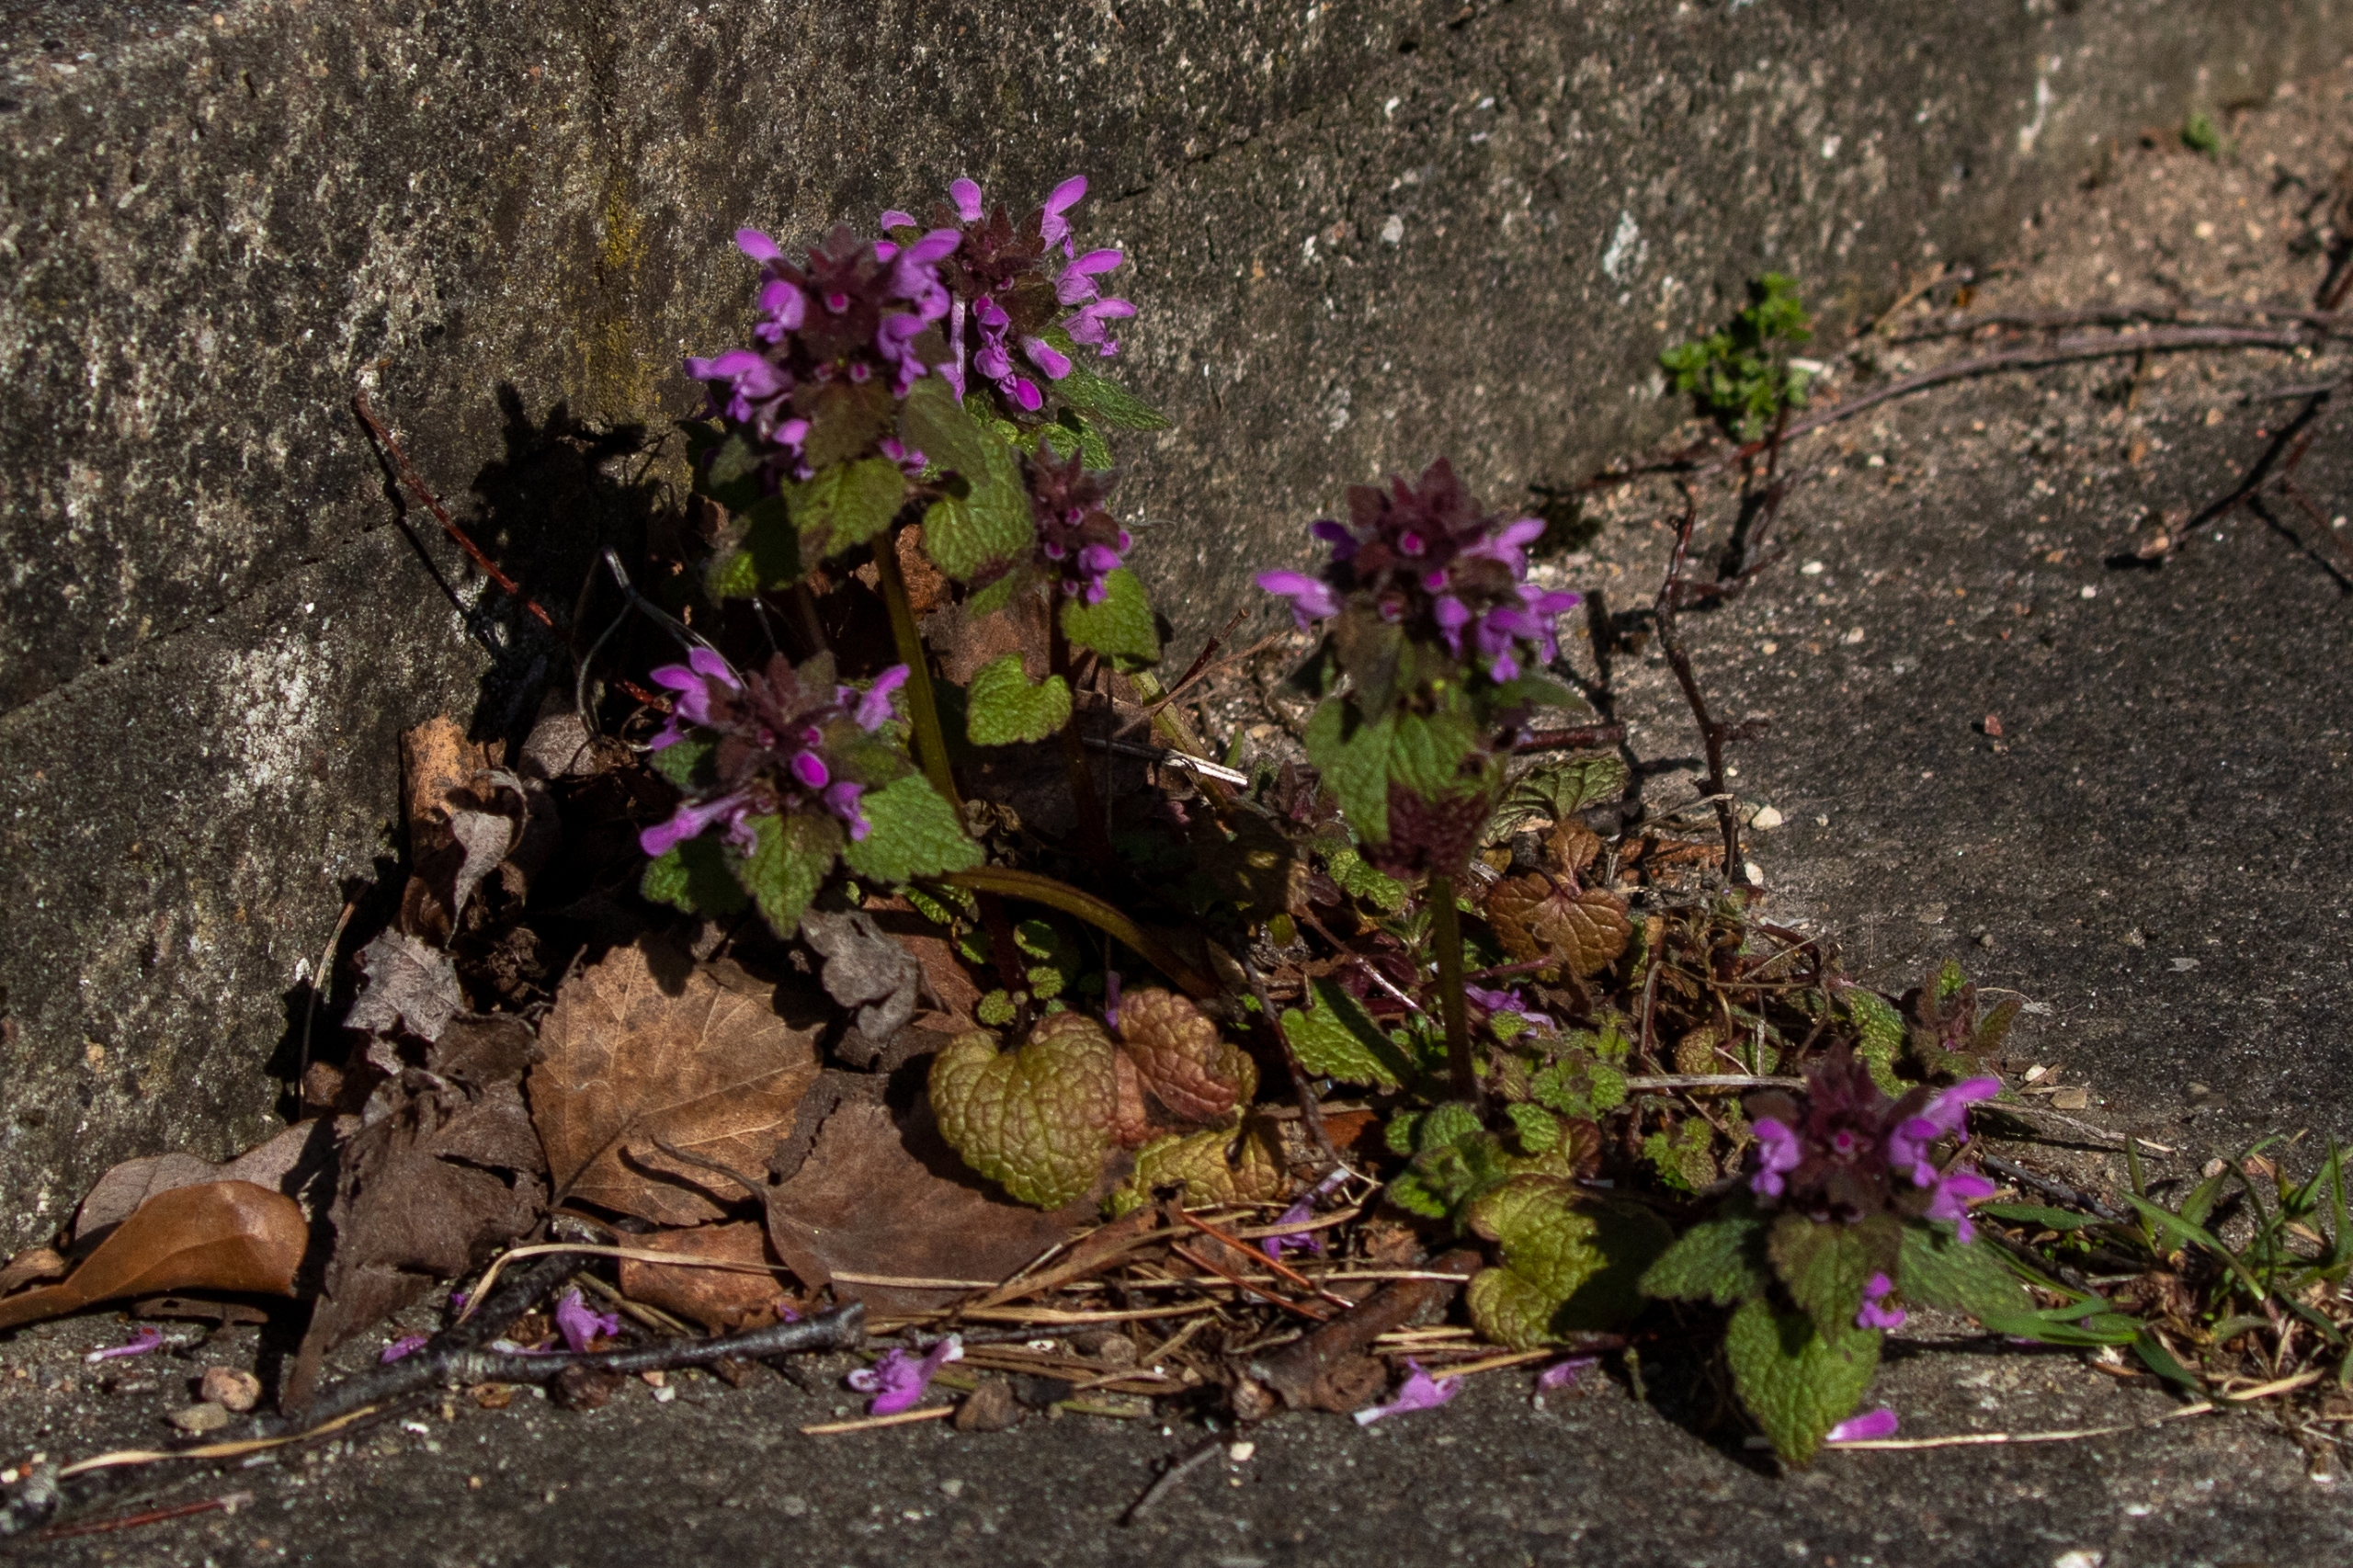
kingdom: Plantae
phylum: Tracheophyta
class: Magnoliopsida
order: Lamiales
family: Lamiaceae
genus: Lamium
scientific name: Lamium purpureum
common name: Rød tvetand
